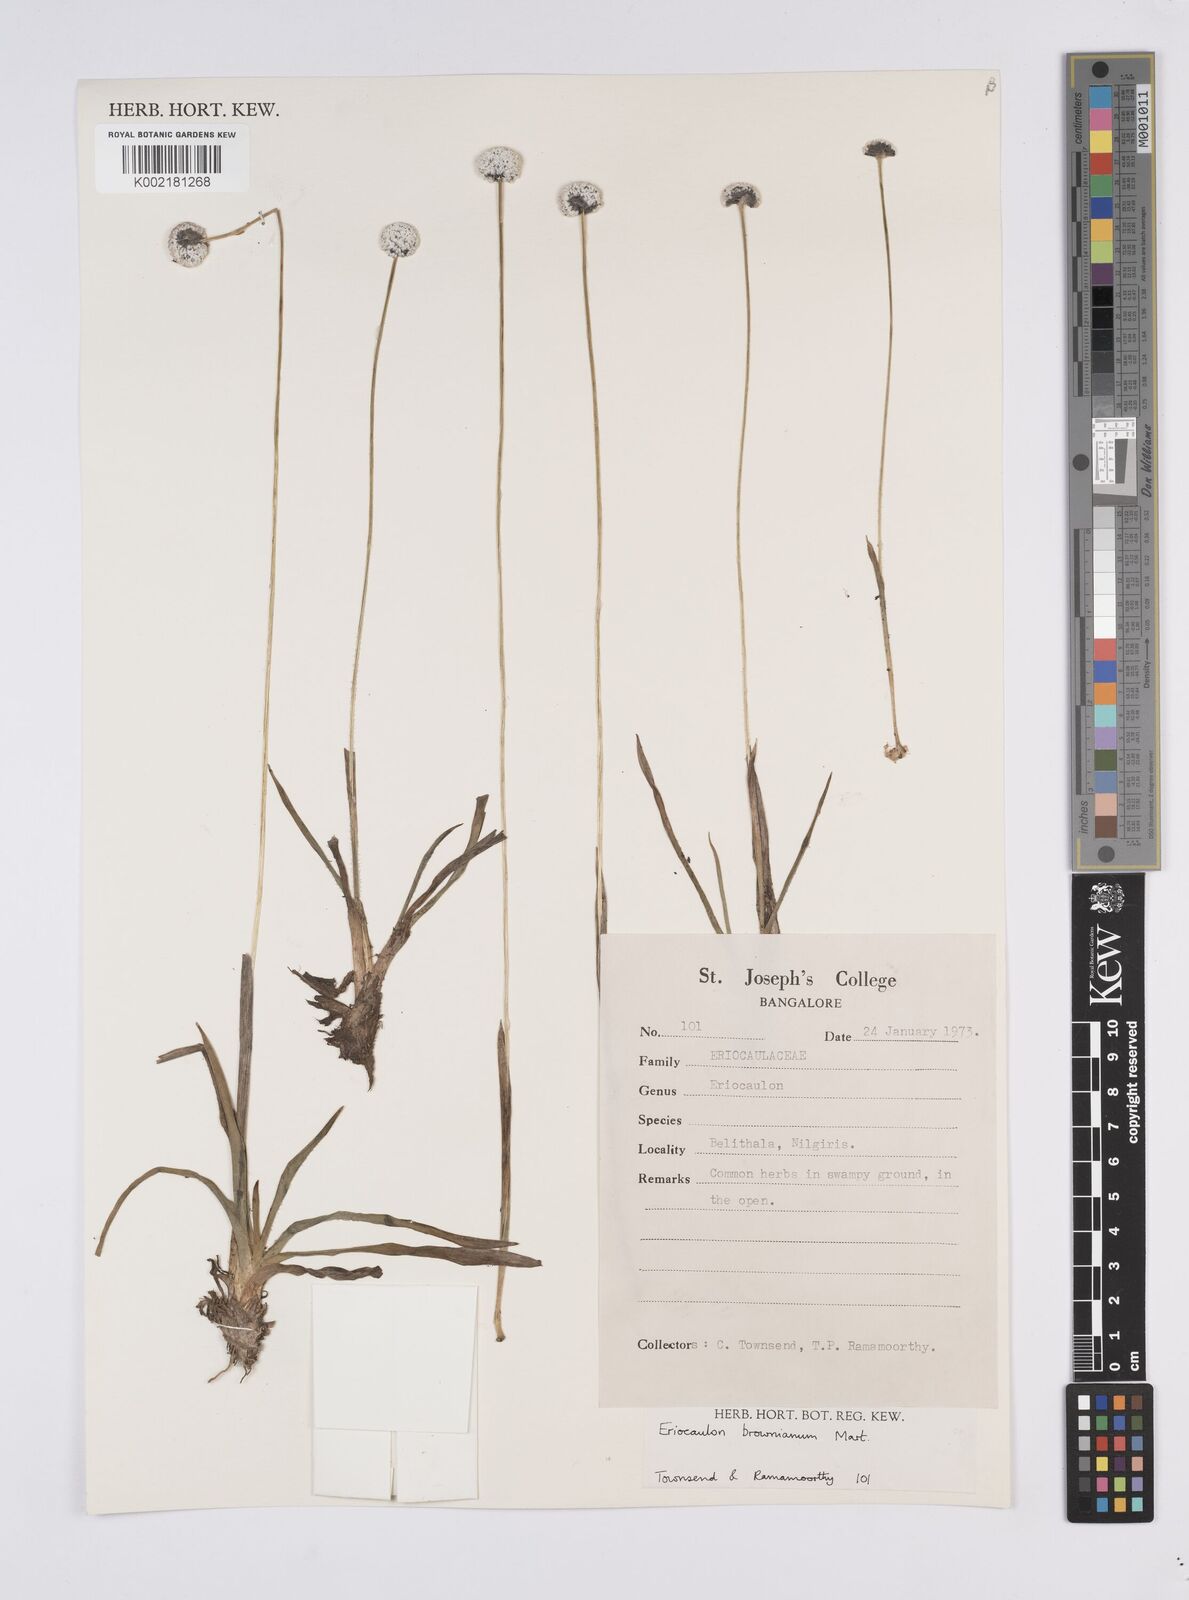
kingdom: Plantae
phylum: Tracheophyta
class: Liliopsida
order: Poales
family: Eriocaulaceae
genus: Eriocaulon
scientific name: Eriocaulon brownianum
